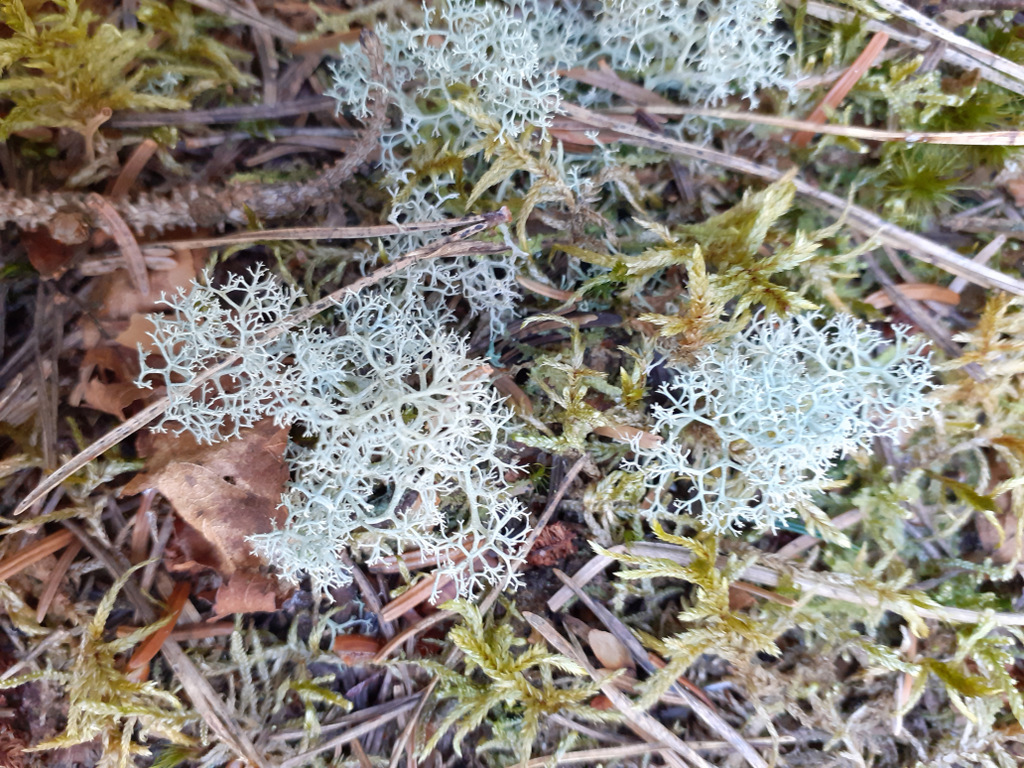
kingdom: Fungi
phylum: Ascomycota
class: Lecanoromycetes
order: Lecanorales
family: Cladoniaceae
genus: Cladonia
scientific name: Cladonia portentosa
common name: hede-rensdyrlav
